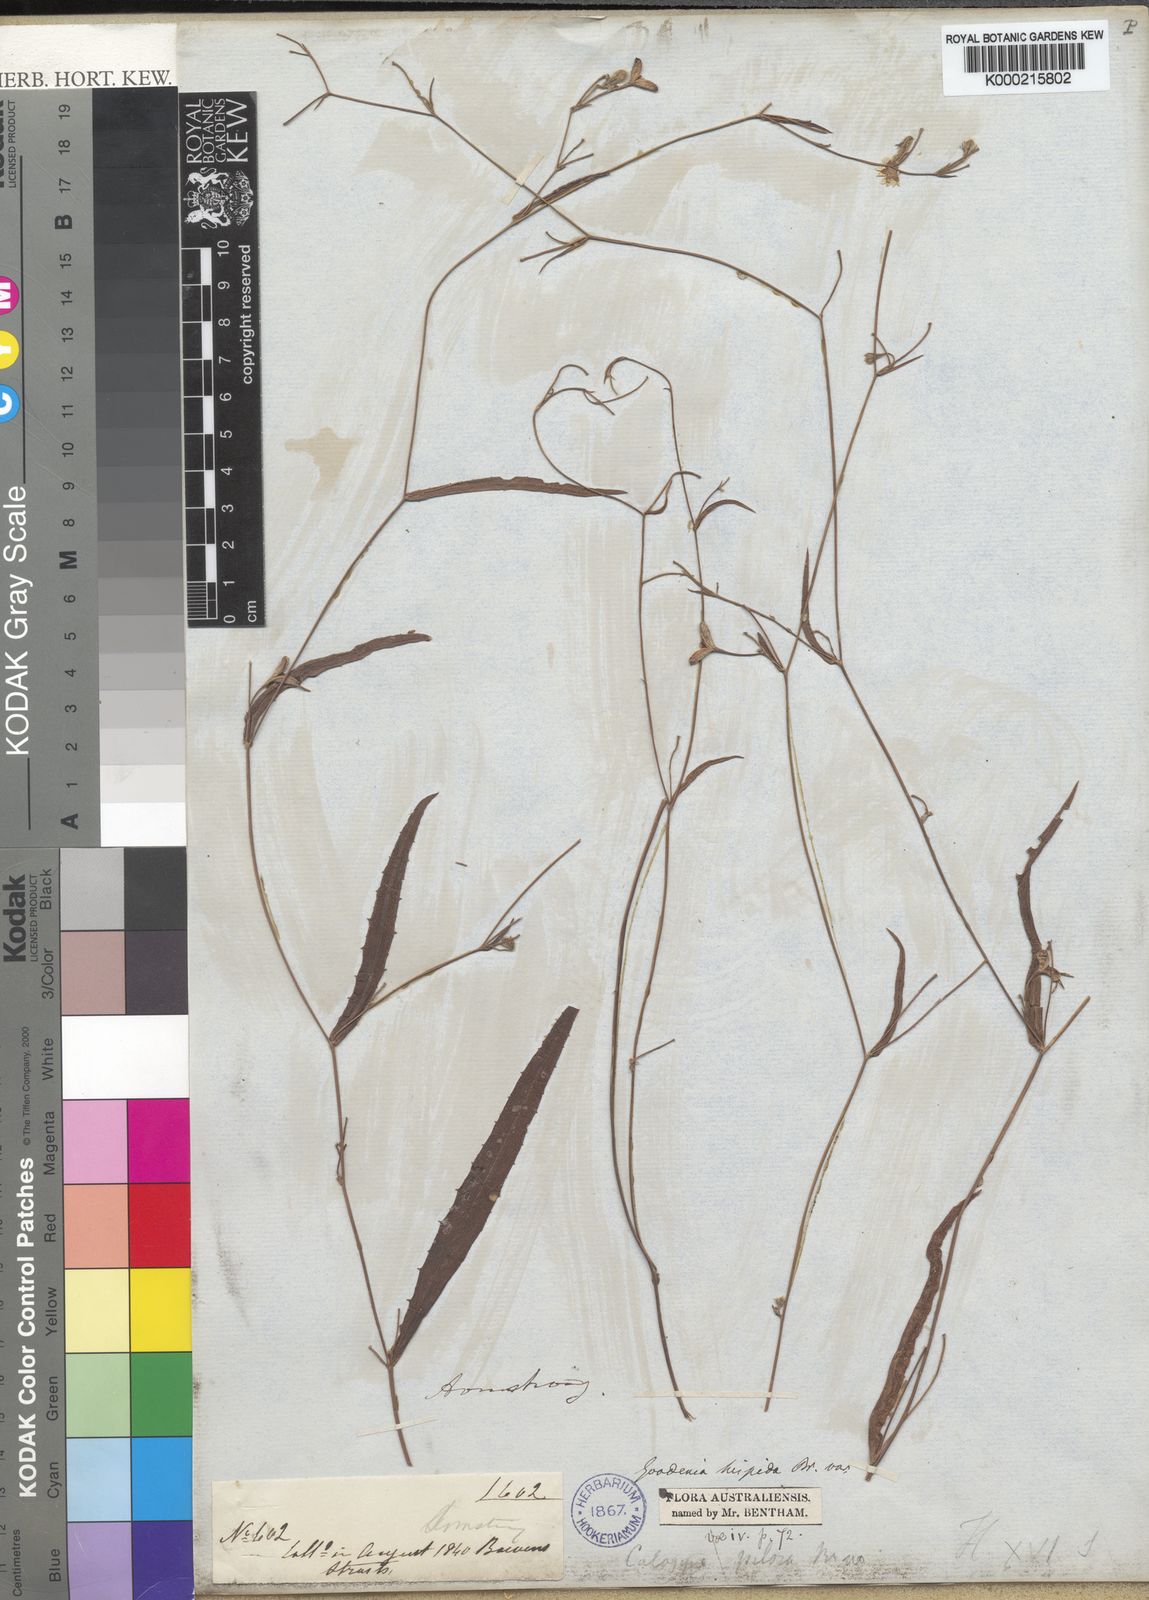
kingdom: Plantae
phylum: Tracheophyta
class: Magnoliopsida
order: Asterales
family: Goodeniaceae
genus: Goodenia
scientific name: Goodenia hispida
